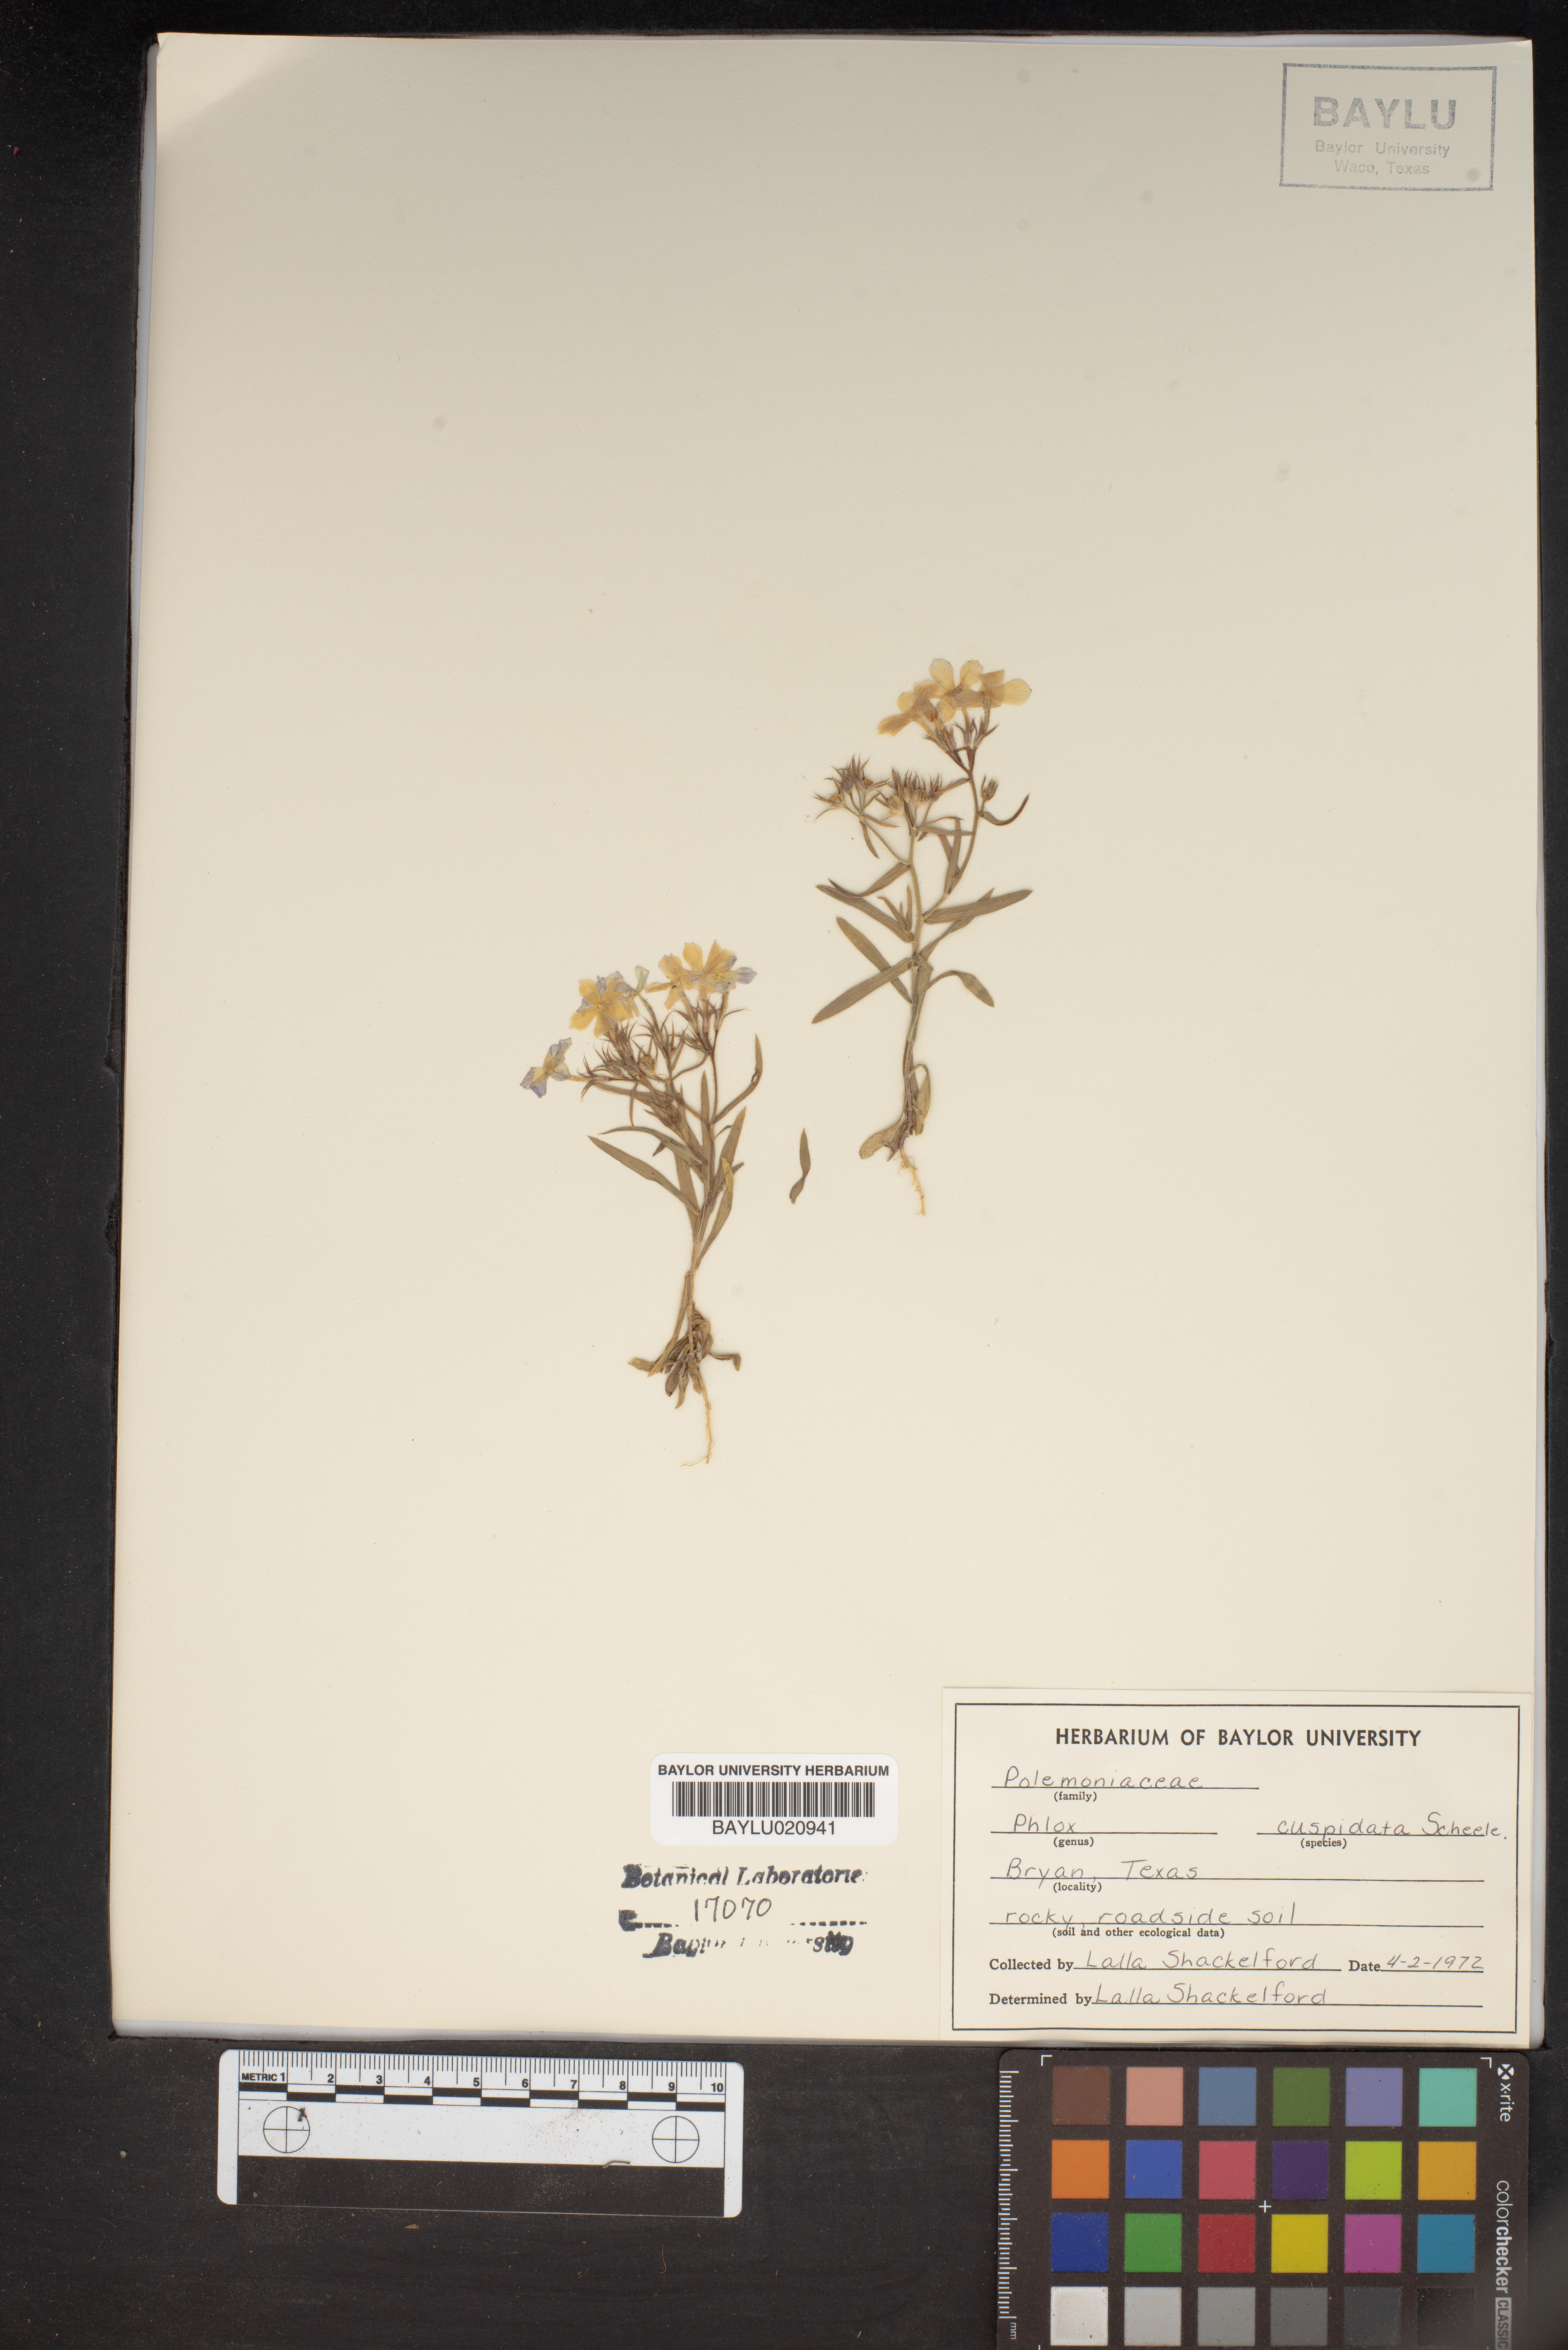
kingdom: Plantae
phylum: Tracheophyta
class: Magnoliopsida
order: Ericales
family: Polemoniaceae
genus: Phlox
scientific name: Phlox cuspidata
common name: Pointed phlox
